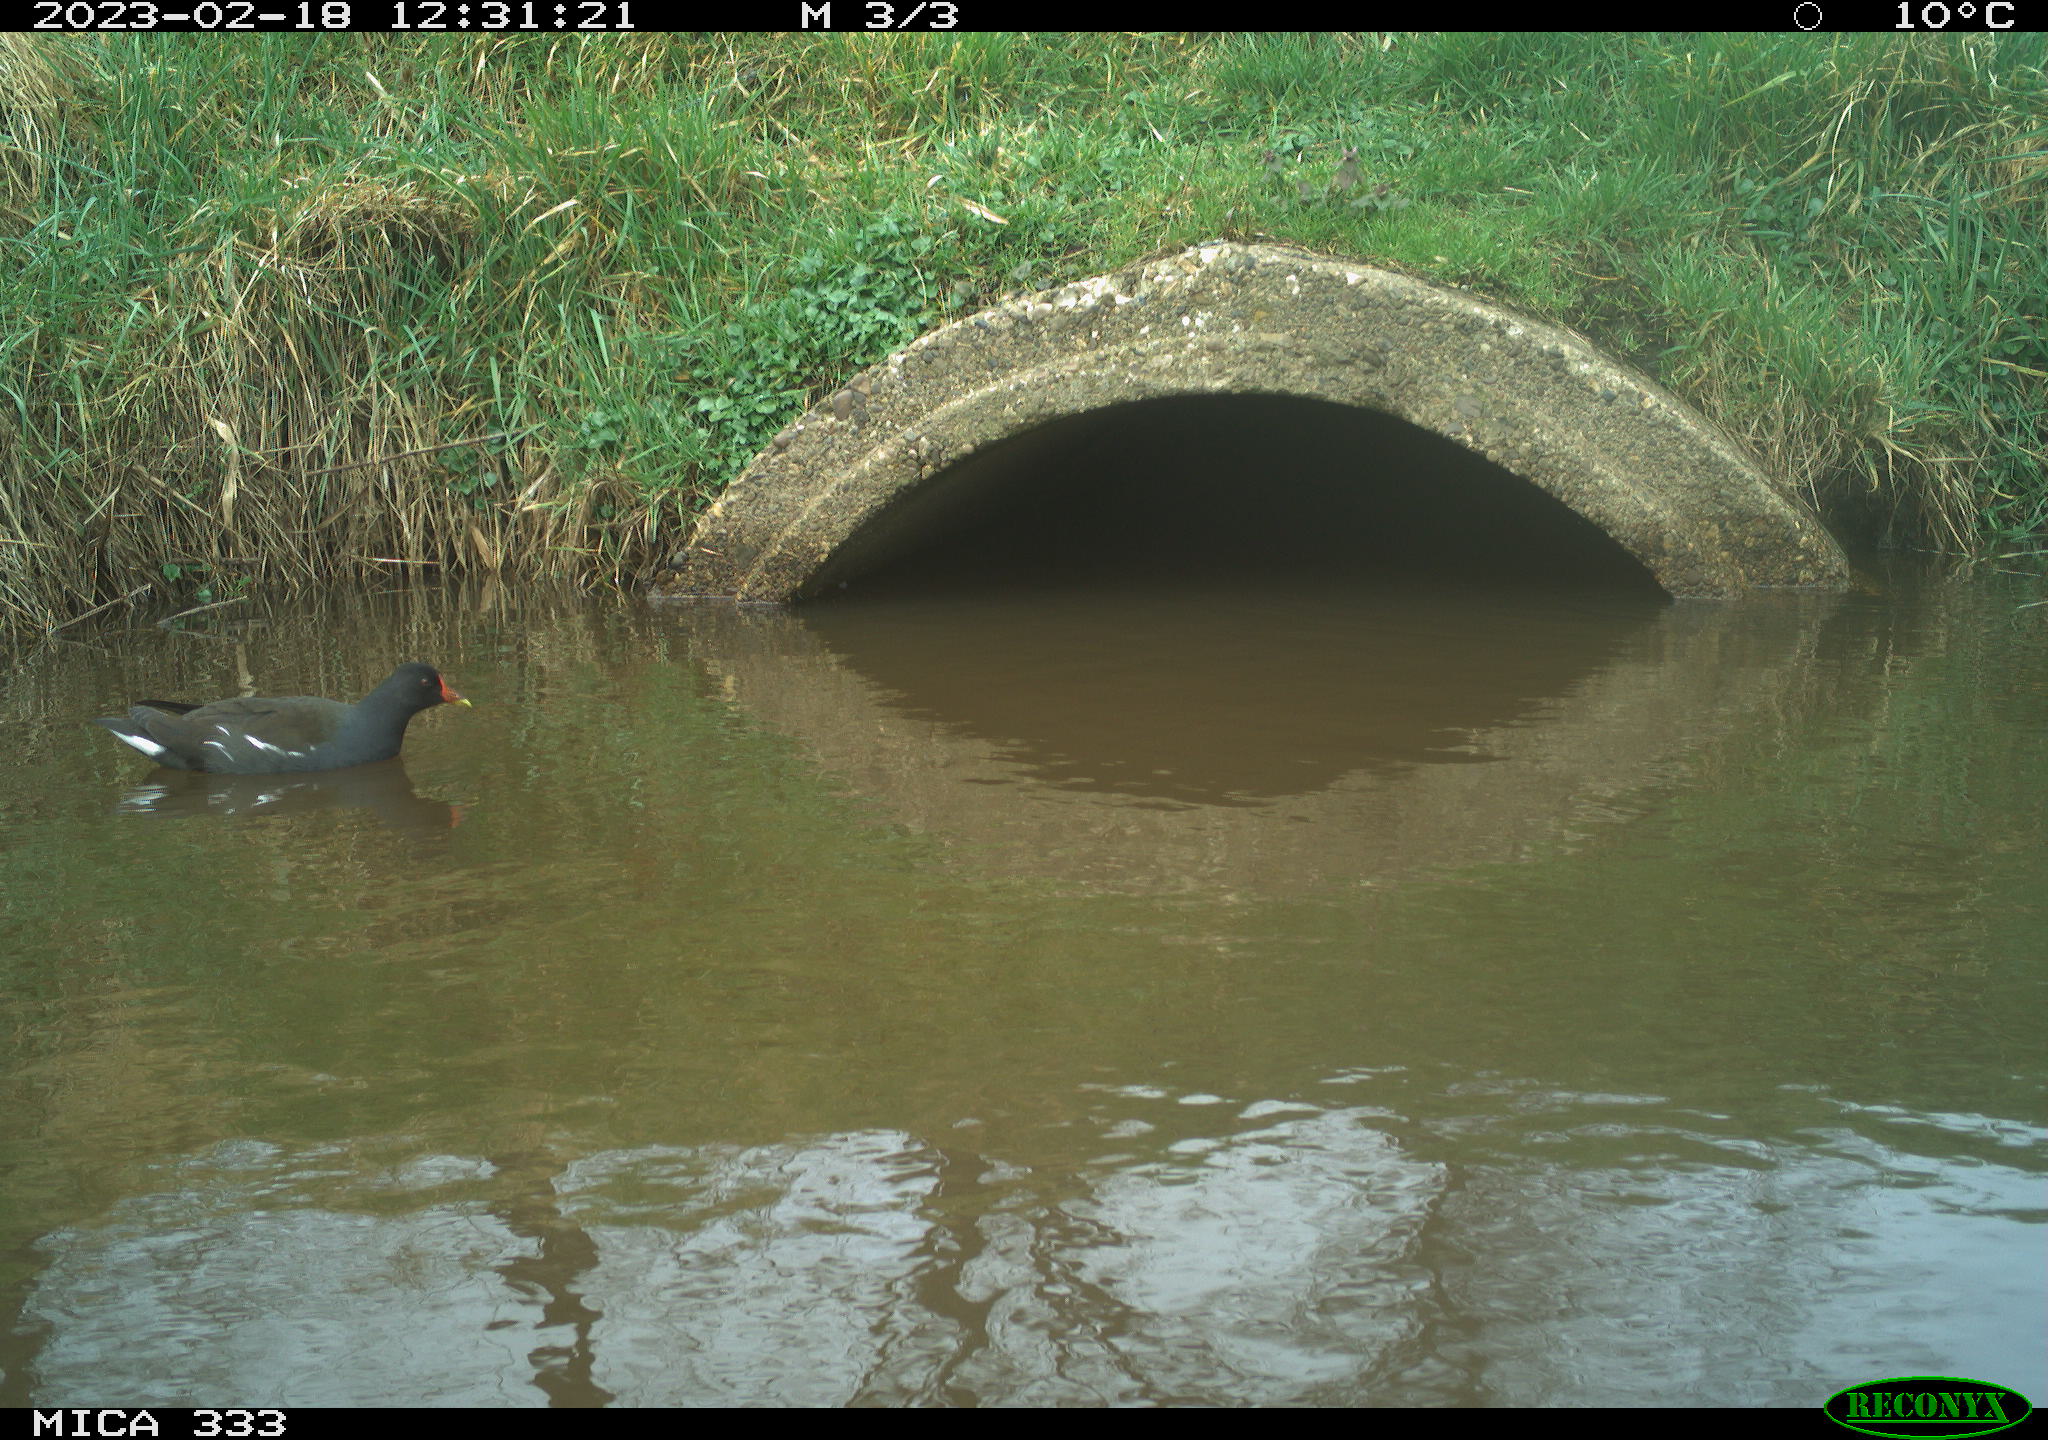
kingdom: Animalia
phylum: Chordata
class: Aves
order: Gruiformes
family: Rallidae
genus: Gallinula
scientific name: Gallinula chloropus
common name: Common moorhen
